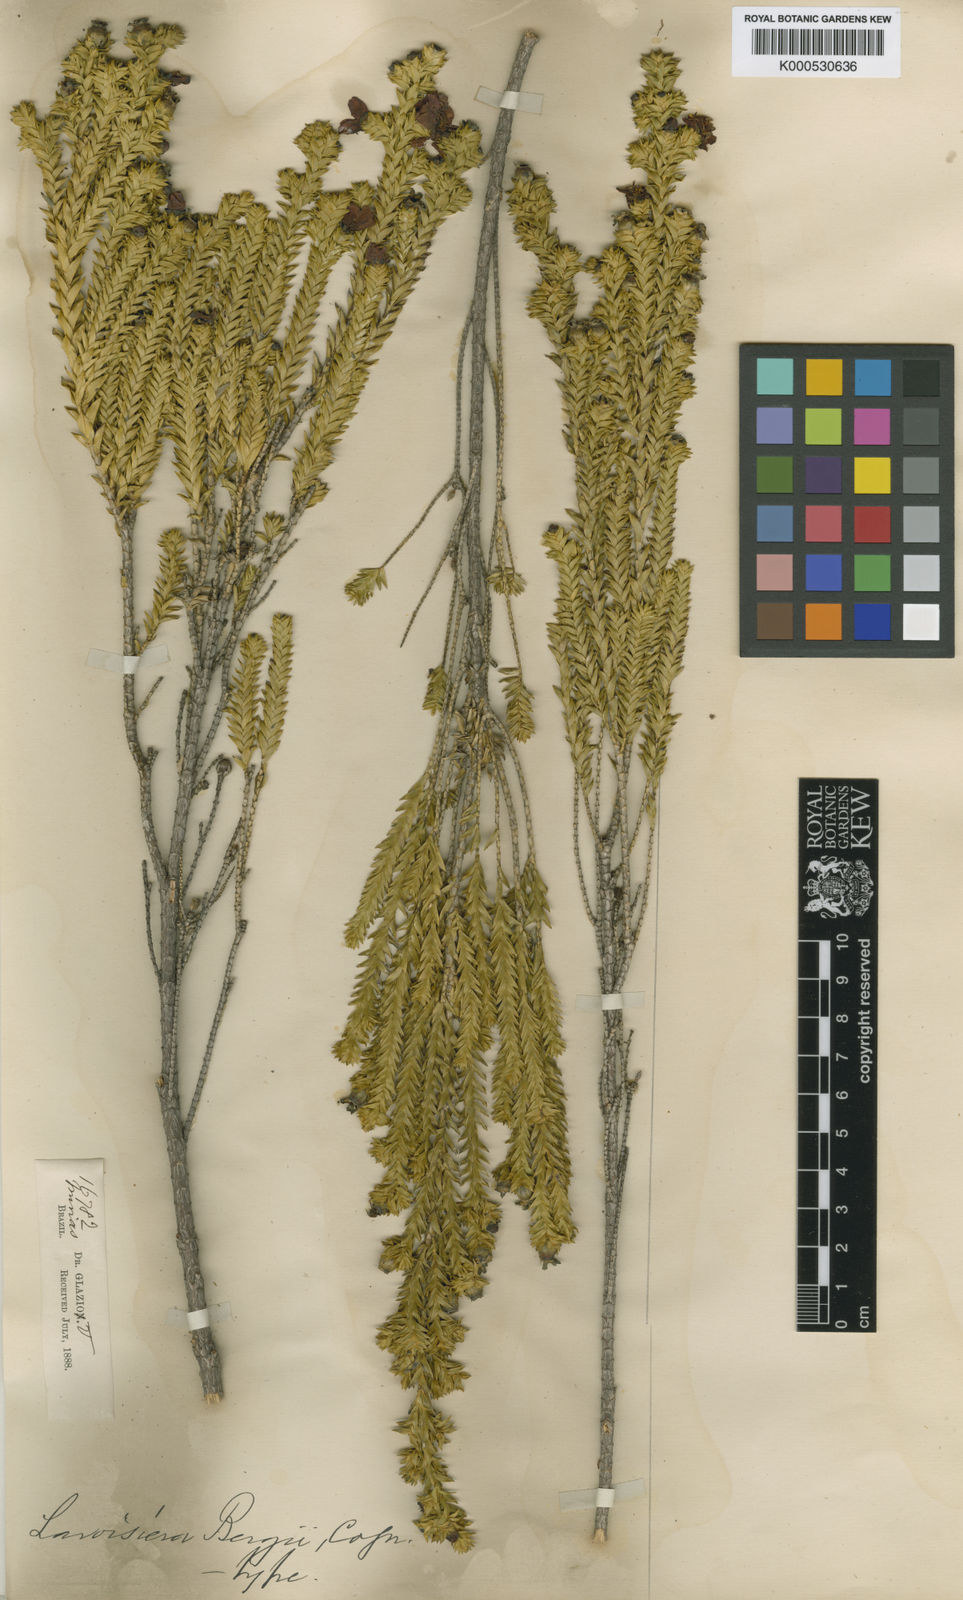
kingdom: Plantae
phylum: Tracheophyta
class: Magnoliopsida
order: Myrtales
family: Melastomataceae
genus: Microlicia
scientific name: Microlicia cataphracta
